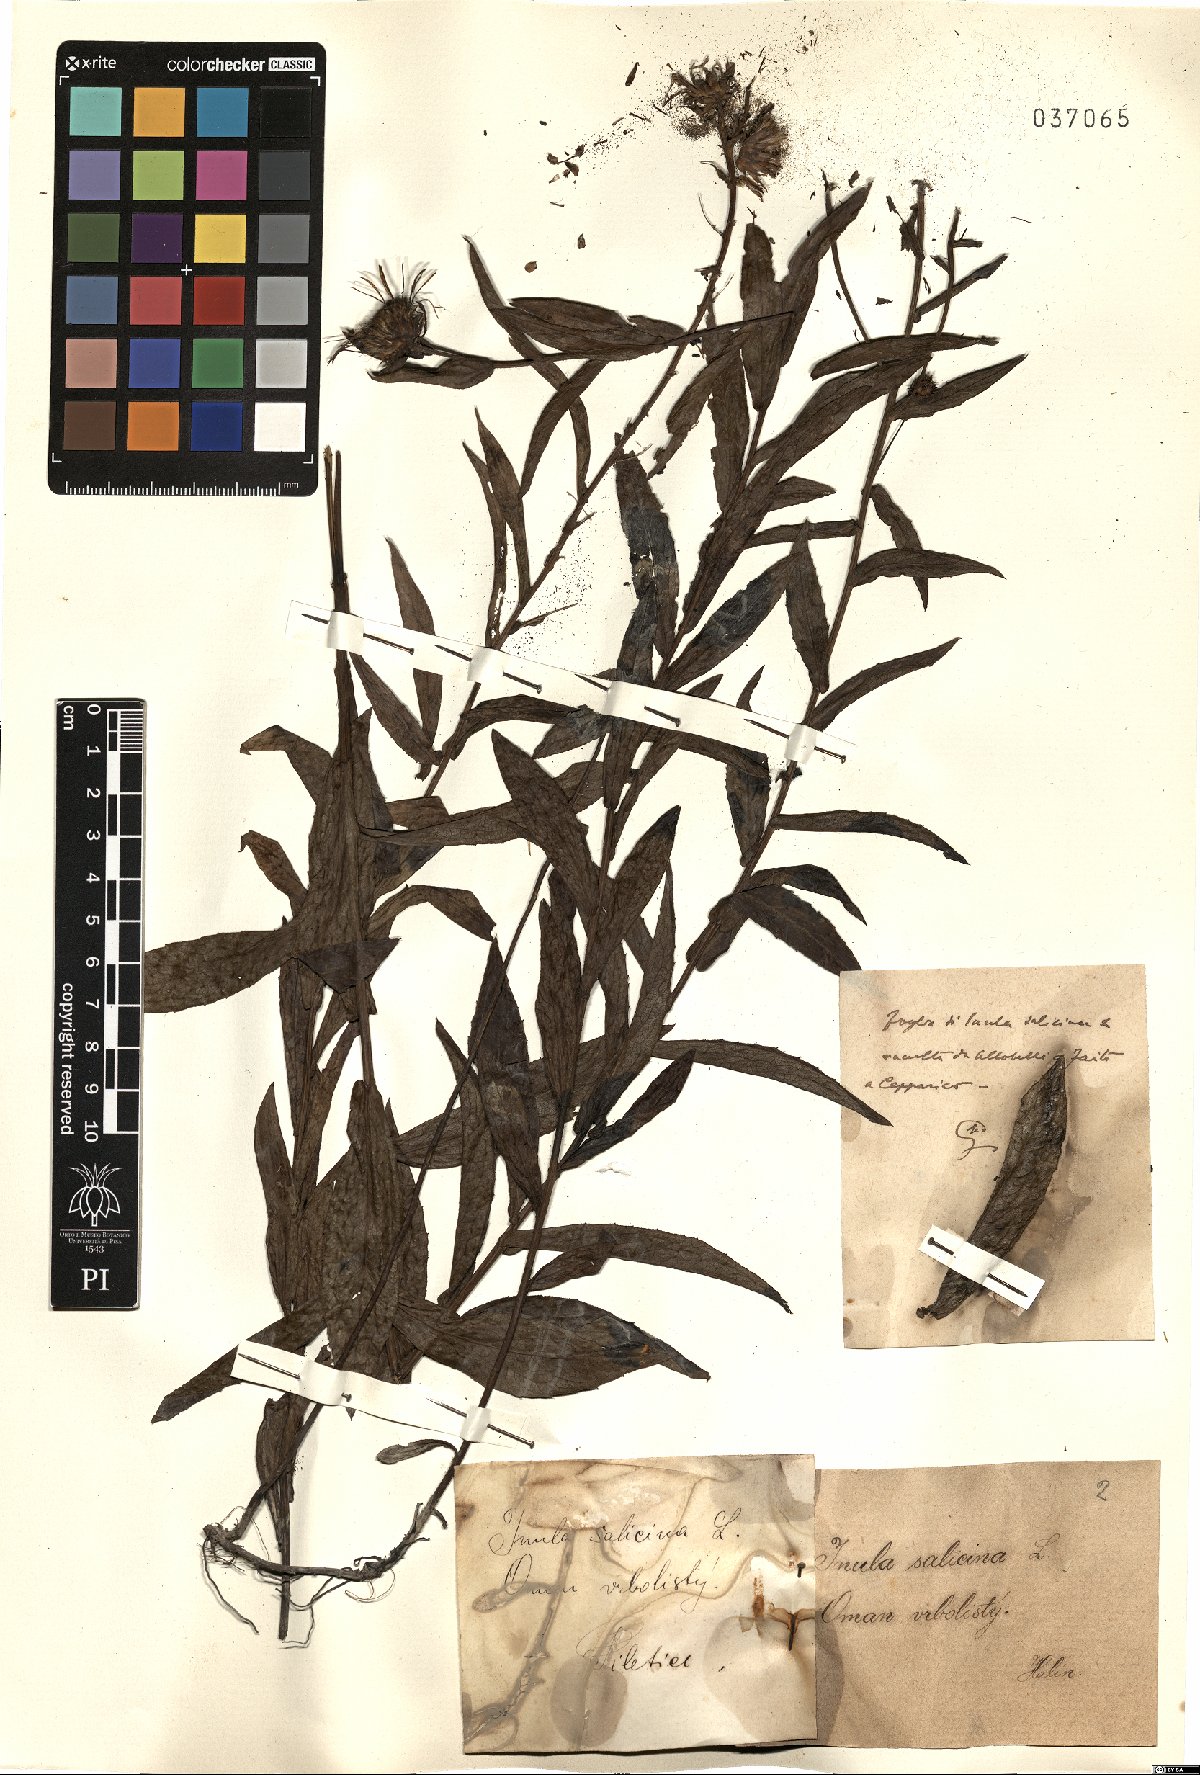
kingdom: Plantae
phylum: Tracheophyta
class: Magnoliopsida
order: Asterales
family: Asteraceae
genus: Pentanema
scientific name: Pentanema salicinum
